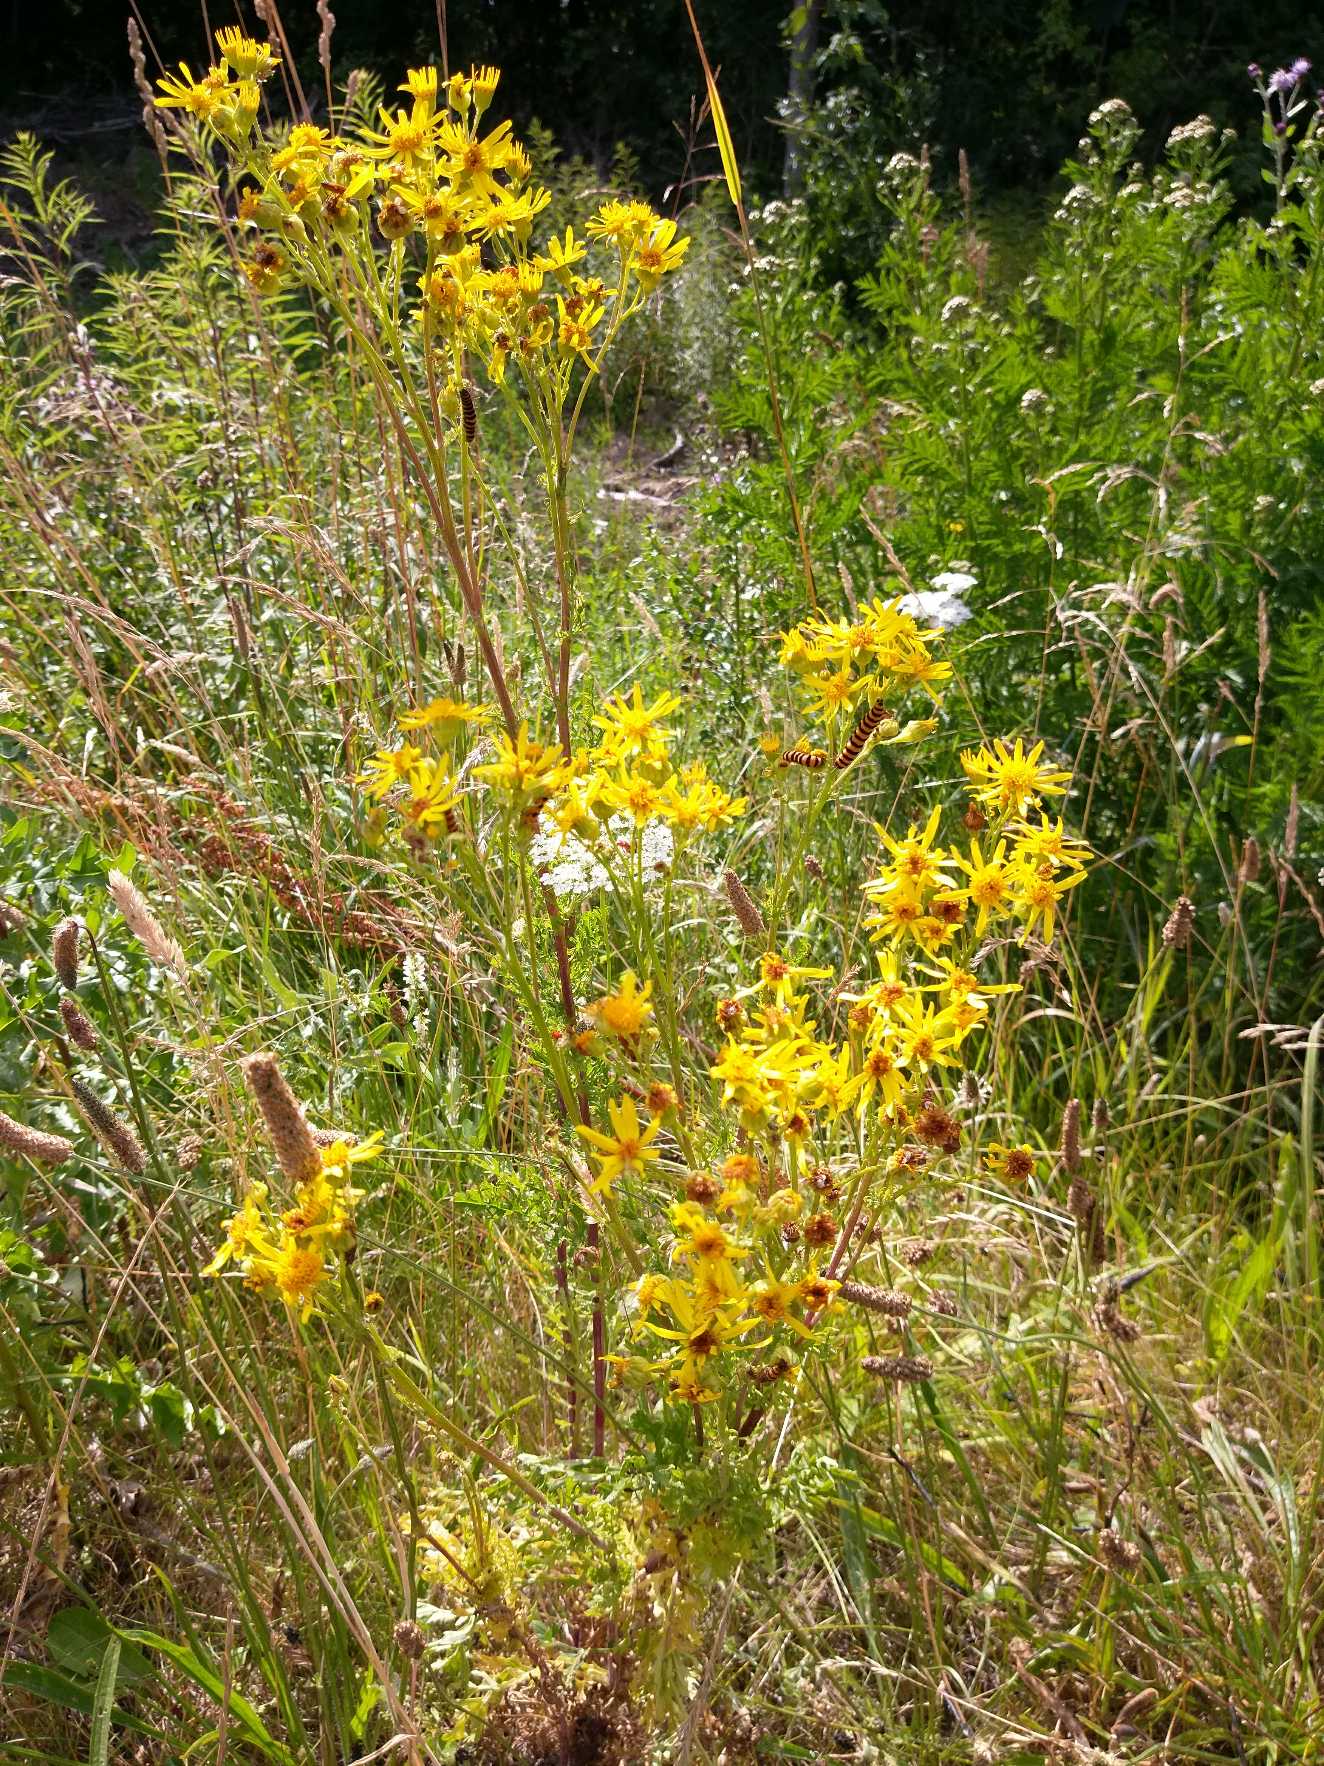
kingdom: Animalia
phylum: Arthropoda
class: Insecta
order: Lepidoptera
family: Erebidae
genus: Tyria
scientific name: Tyria jacobaeae
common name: Blodplet
